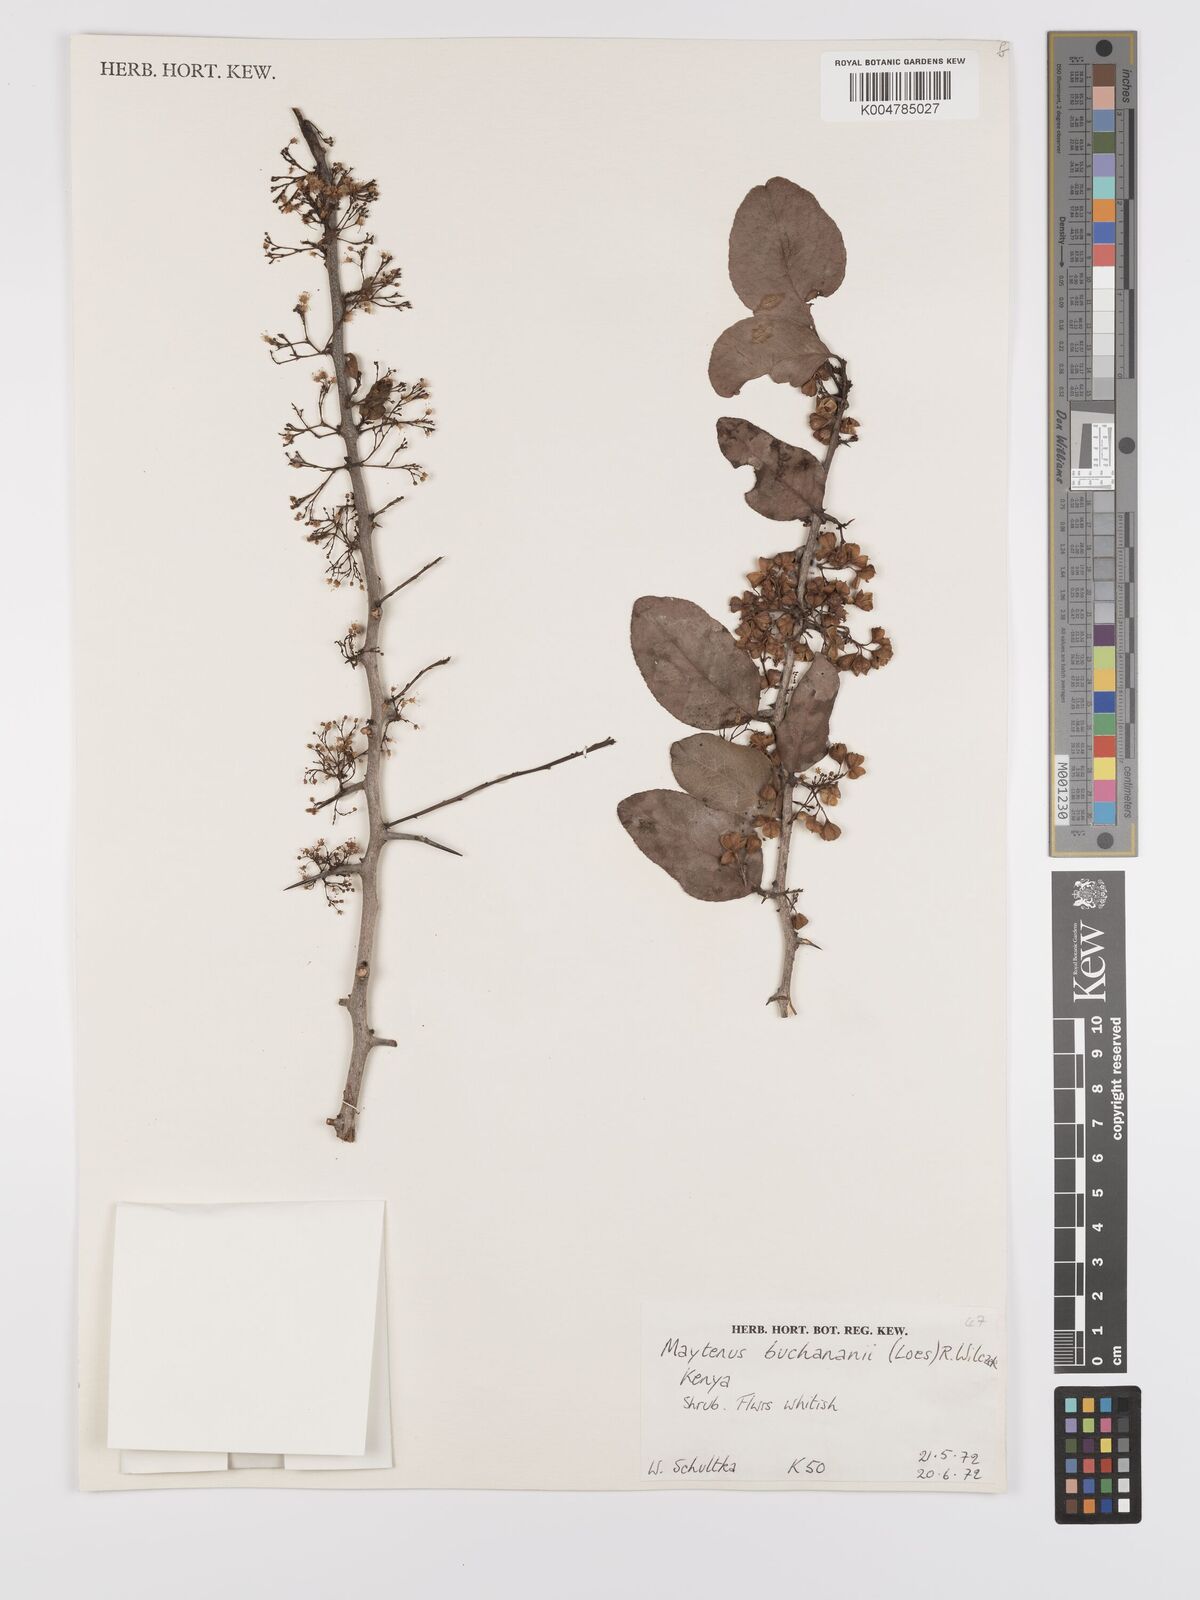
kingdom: Plantae
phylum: Tracheophyta
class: Magnoliopsida
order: Celastrales
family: Celastraceae
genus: Gymnosporia
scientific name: Gymnosporia buchananii
